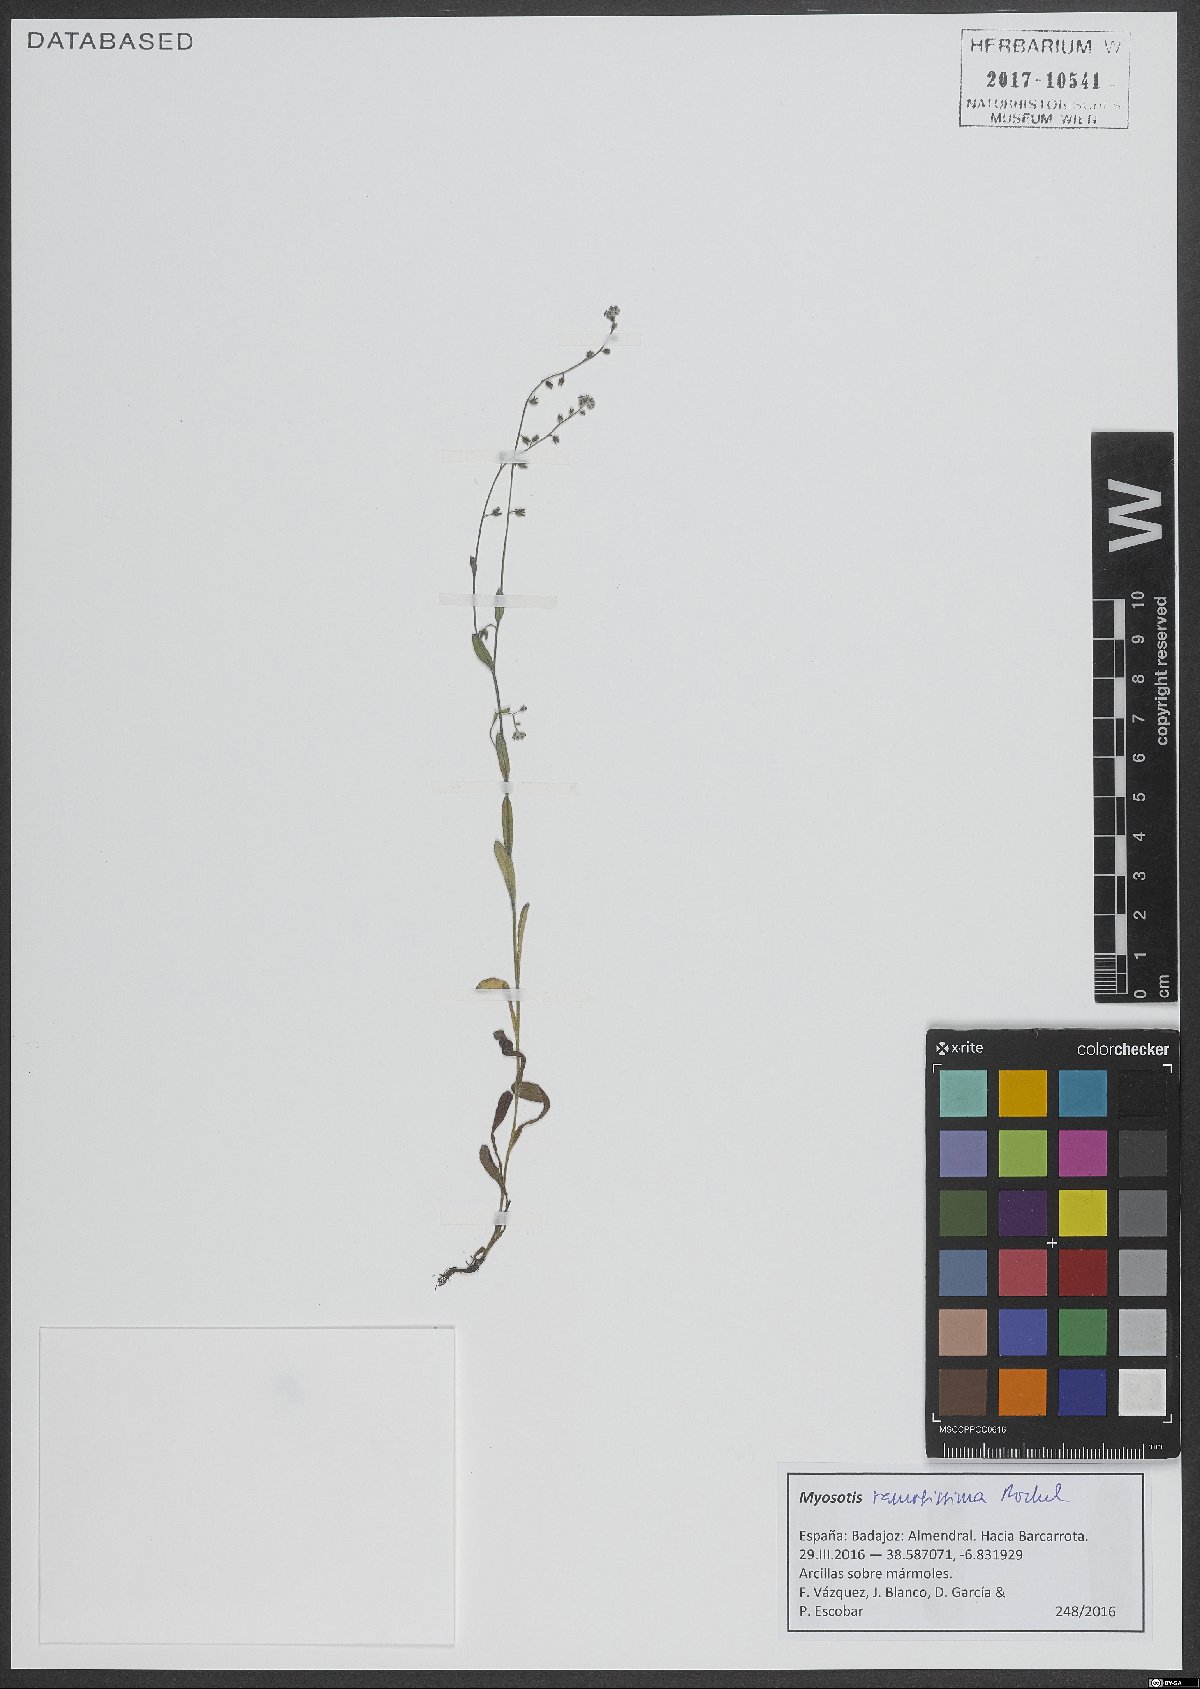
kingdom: Plantae
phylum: Tracheophyta
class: Magnoliopsida
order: Boraginales
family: Boraginaceae
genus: Myosotis
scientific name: Myosotis ramosissima
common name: Early forget-me-not
